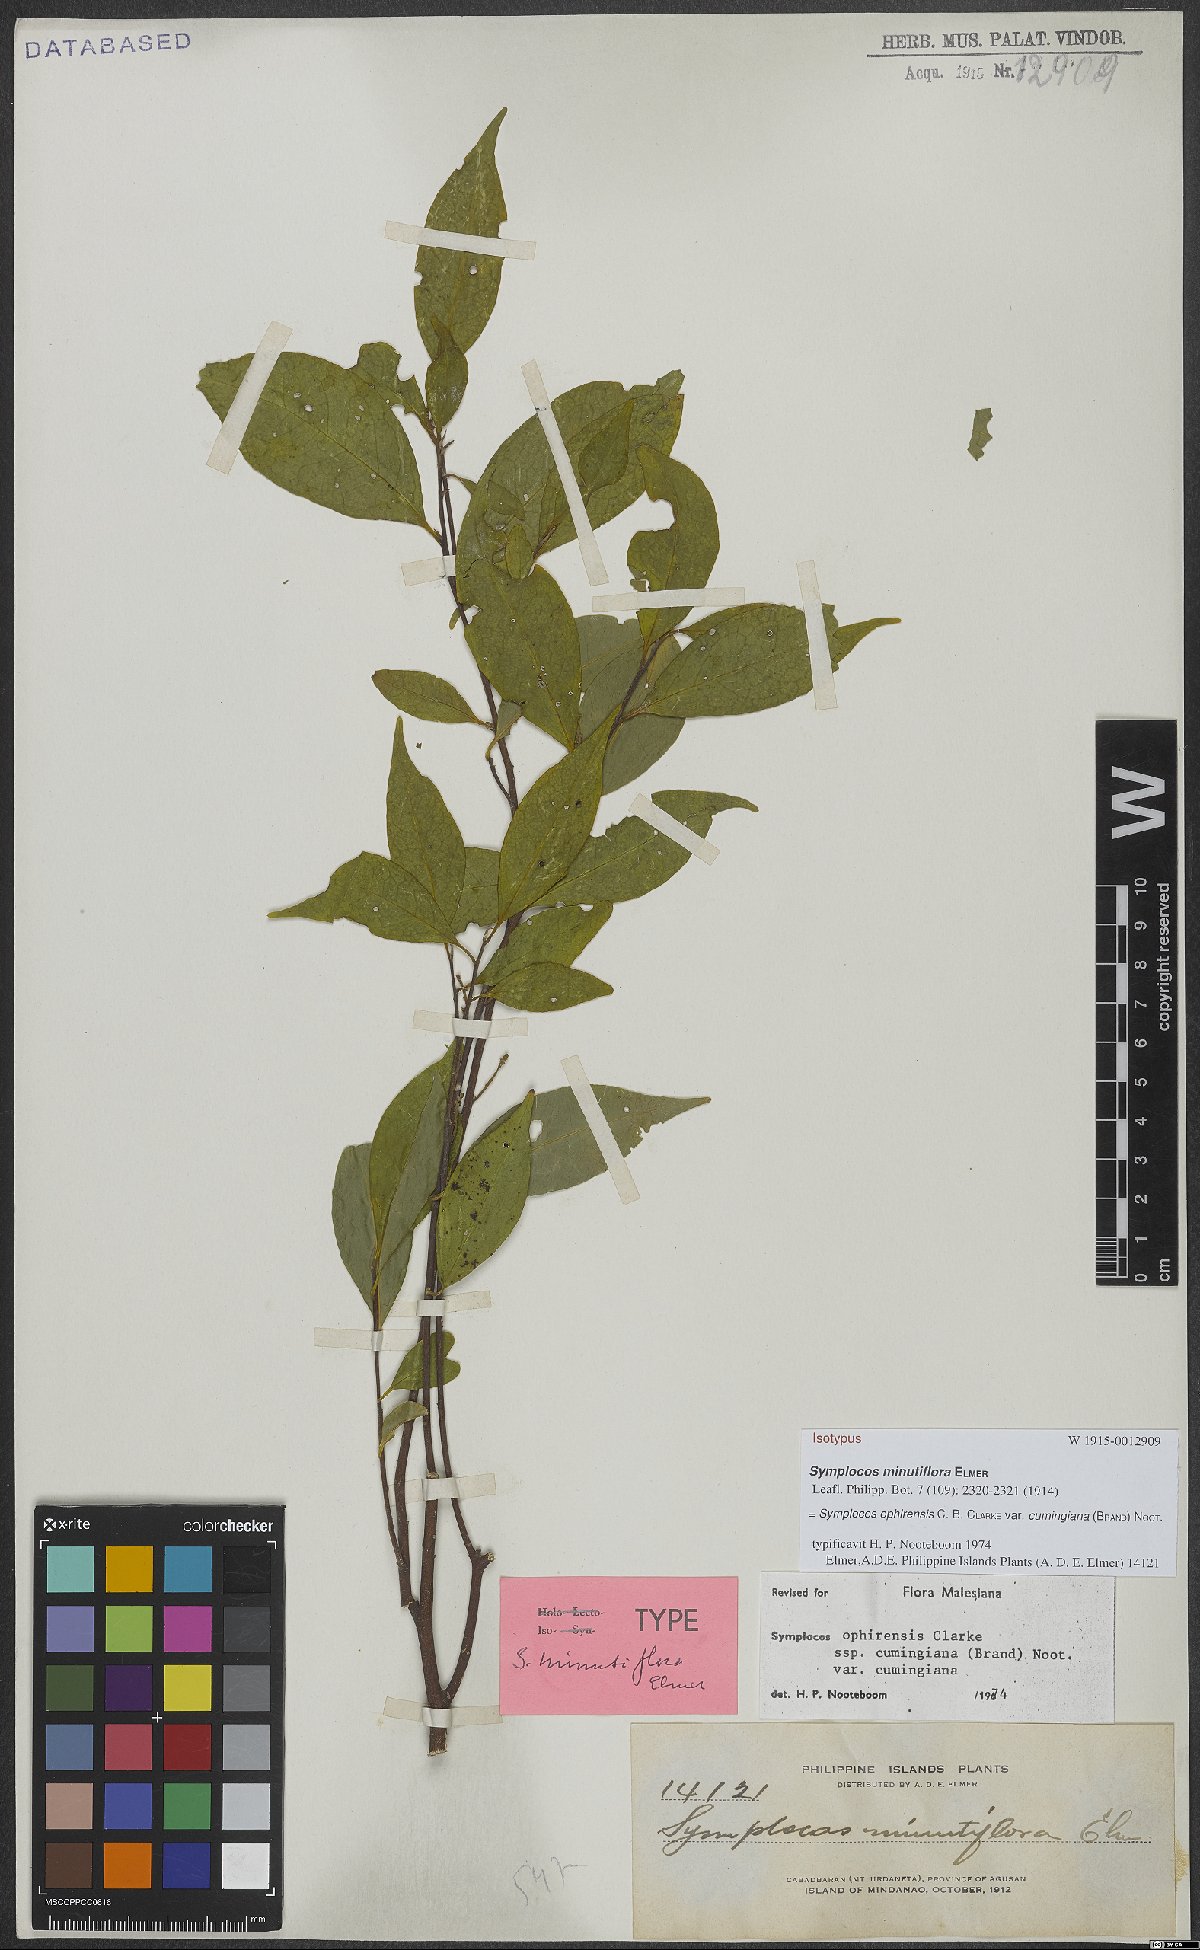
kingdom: Plantae
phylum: Tracheophyta
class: Magnoliopsida
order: Ericales
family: Symplocaceae
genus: Symplocos
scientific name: Symplocos ophirensis
